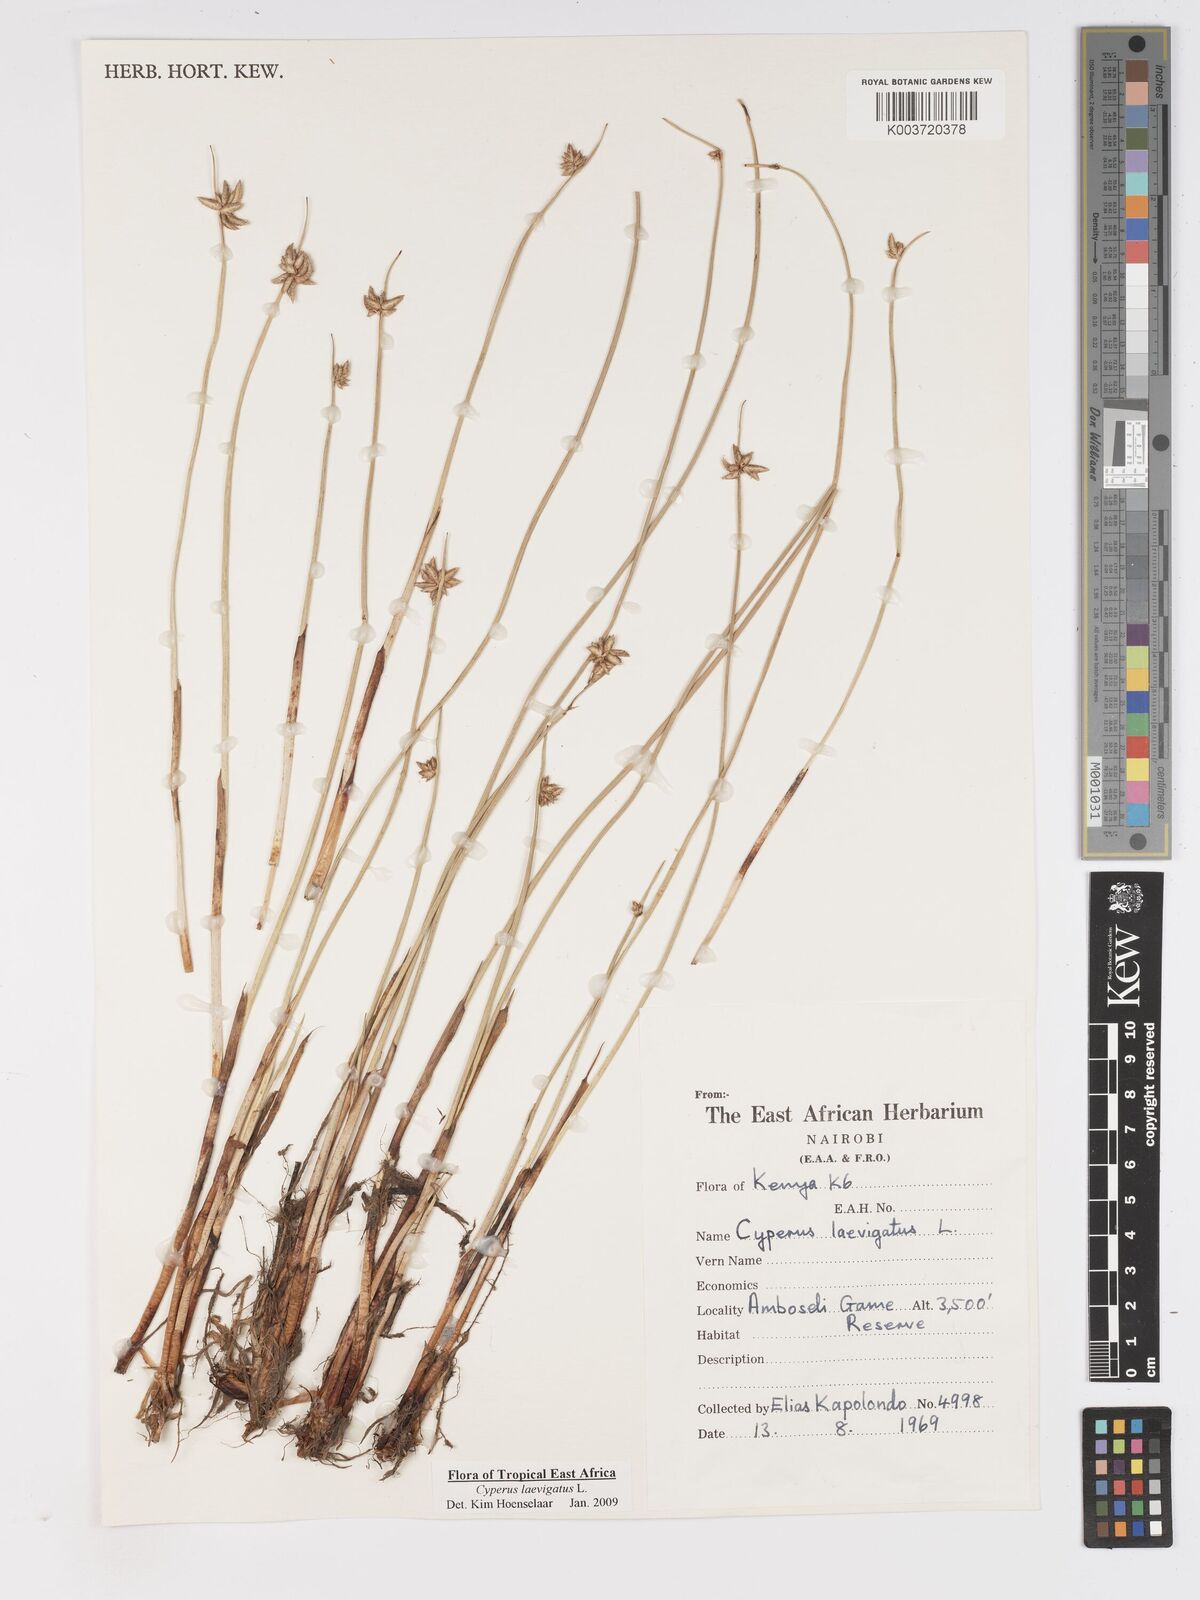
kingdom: Plantae
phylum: Tracheophyta
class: Liliopsida
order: Poales
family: Cyperaceae
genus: Cyperus
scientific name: Cyperus laevigatus
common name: Smooth flat sedge
